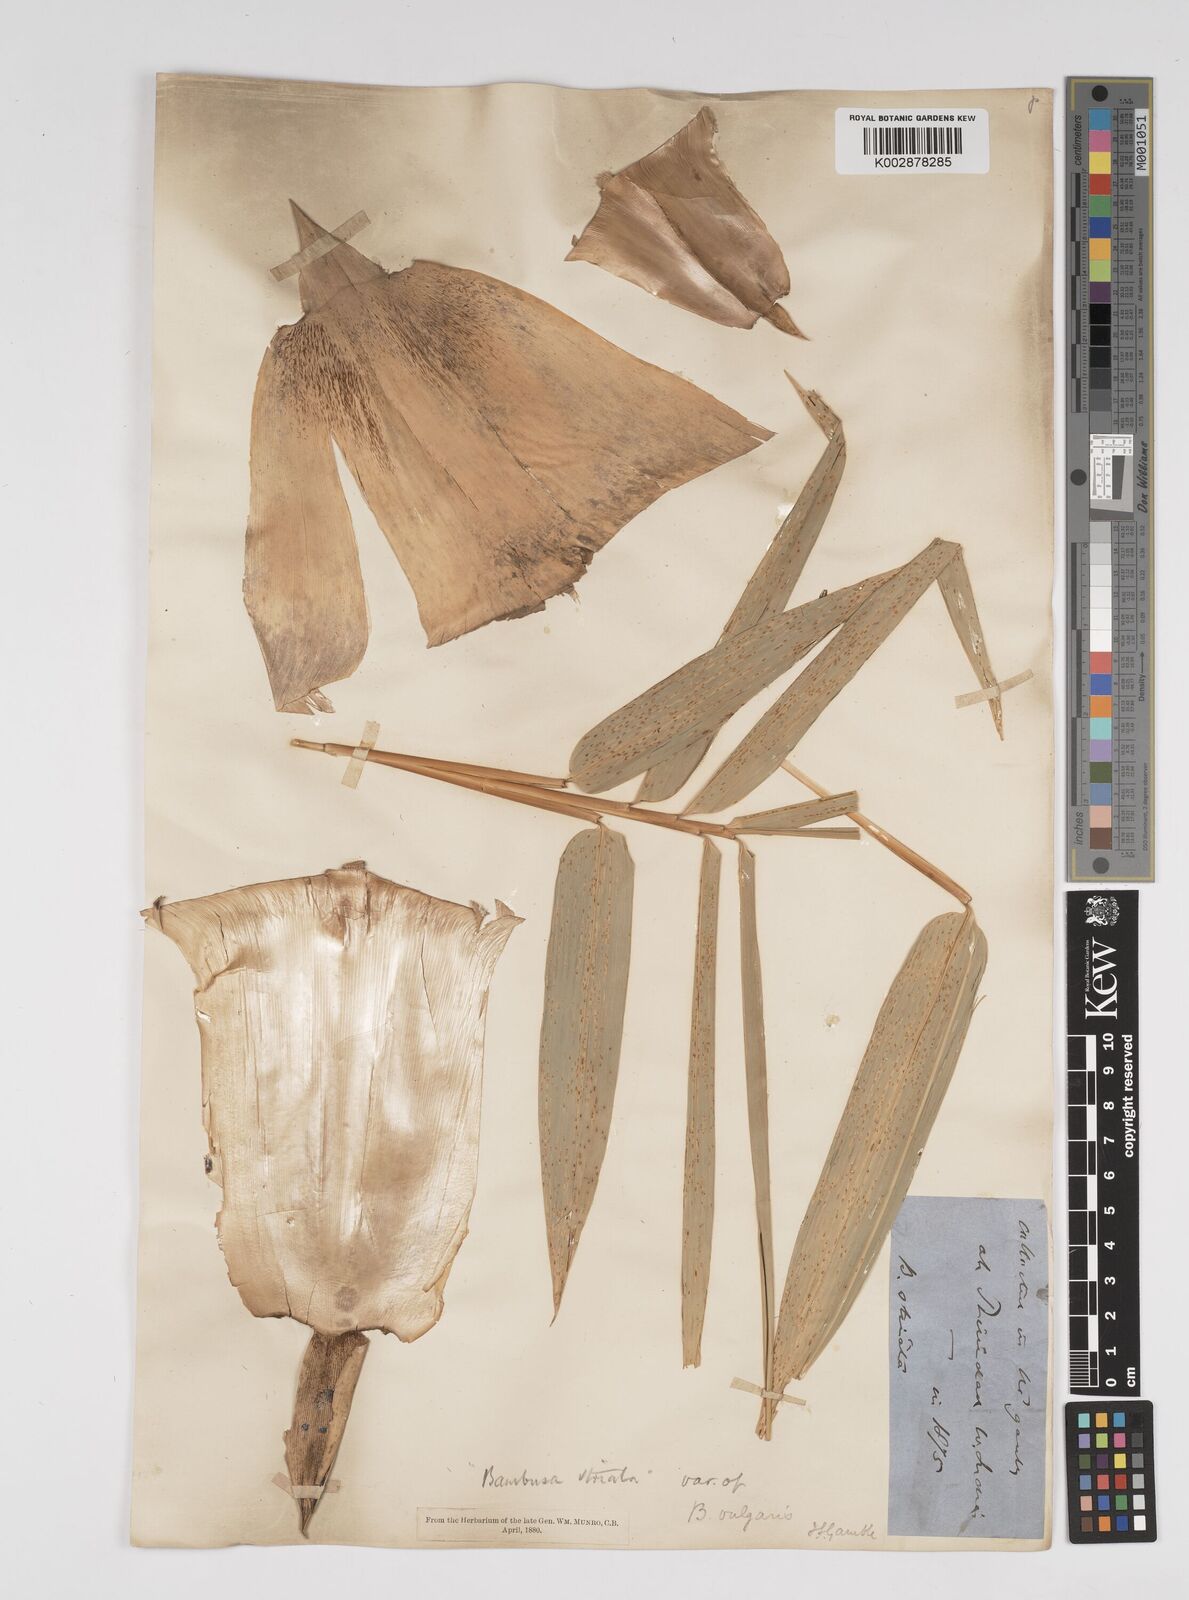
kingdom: Plantae
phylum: Tracheophyta
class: Liliopsida
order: Poales
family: Poaceae
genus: Bambusa
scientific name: Bambusa vulgaris
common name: Common bamboo
